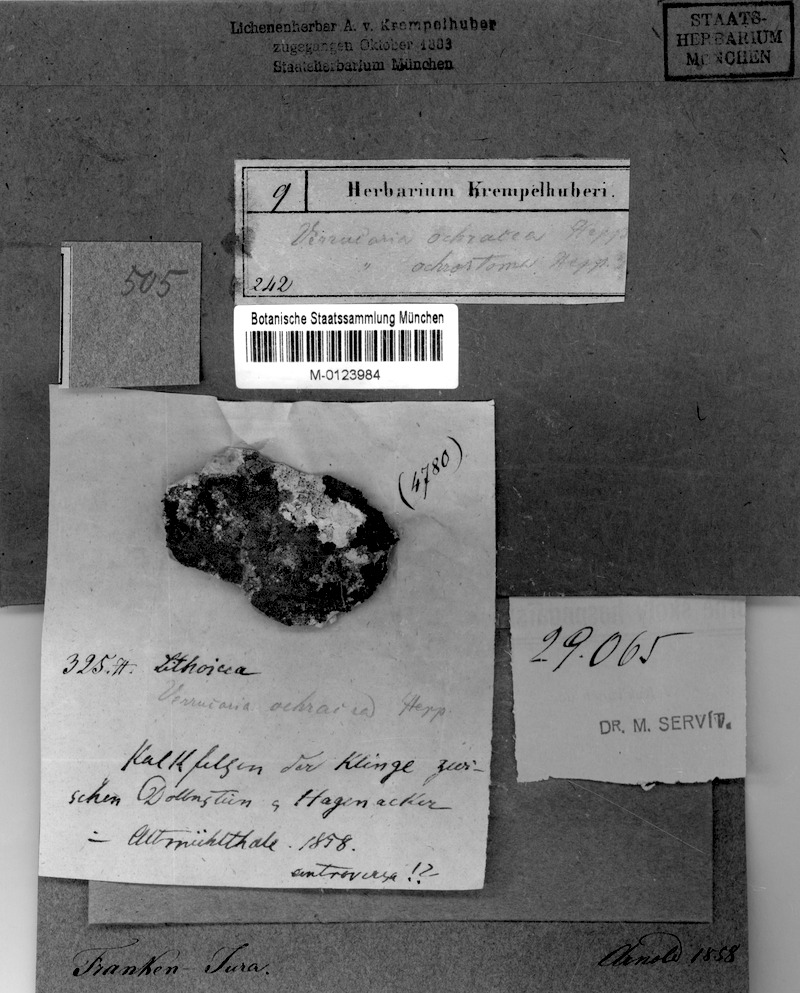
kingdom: Fungi
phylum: Ascomycota
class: Eurotiomycetes
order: Verrucariales
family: Verrucariaceae
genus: Verrucaria
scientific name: Verrucaria ochrostoma
